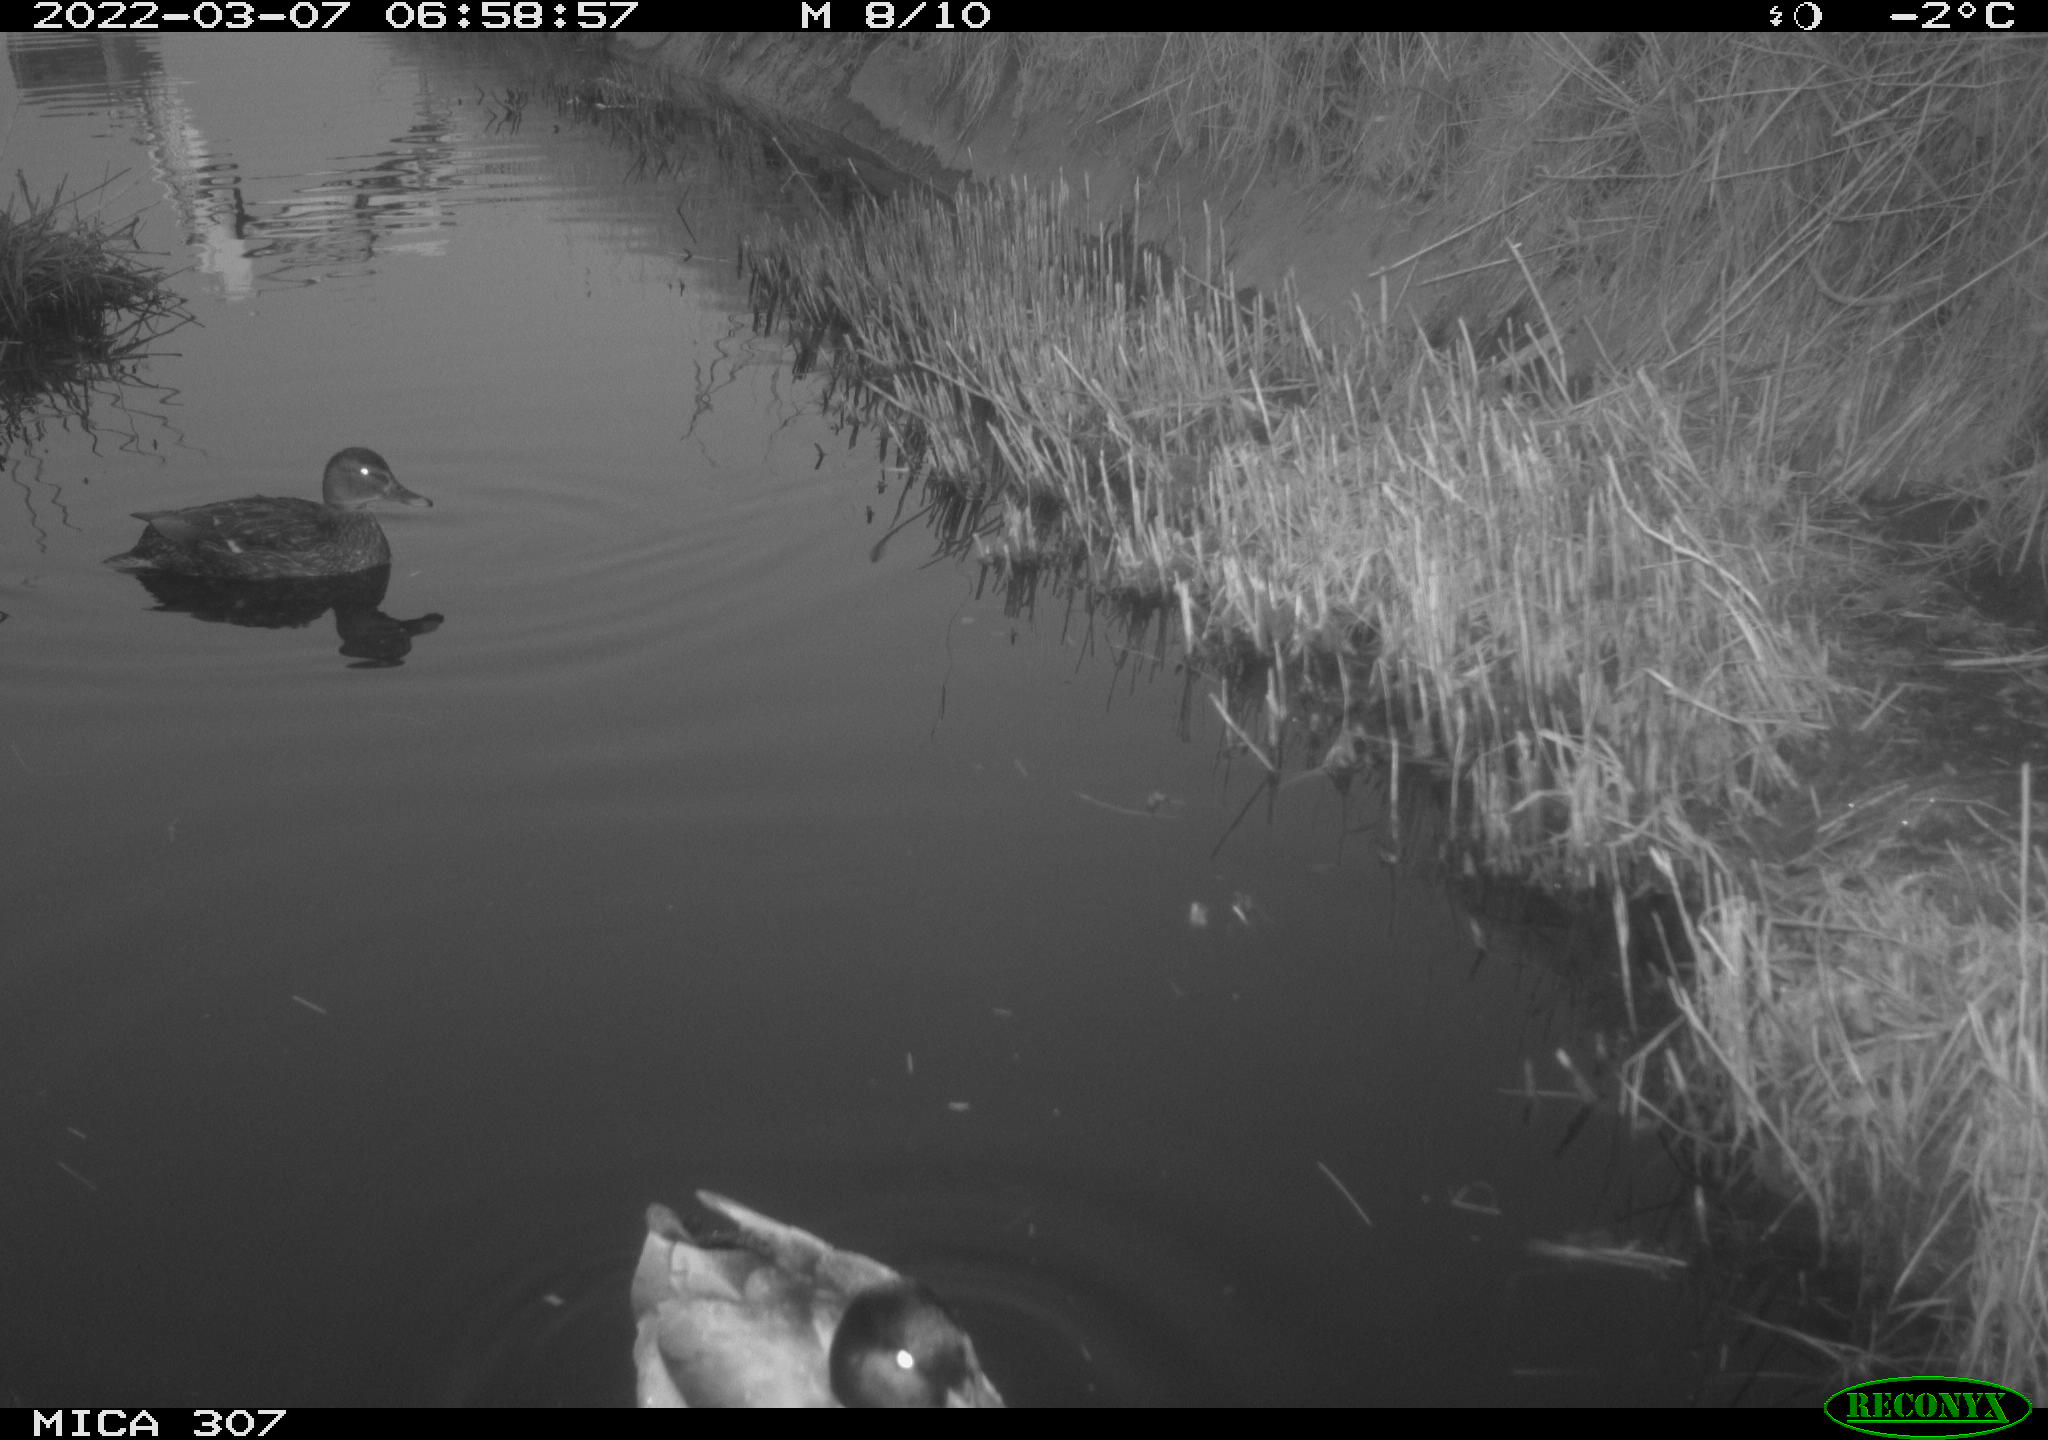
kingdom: Animalia
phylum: Chordata
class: Aves
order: Anseriformes
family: Anatidae
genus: Anas
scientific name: Anas platyrhynchos
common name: Mallard
